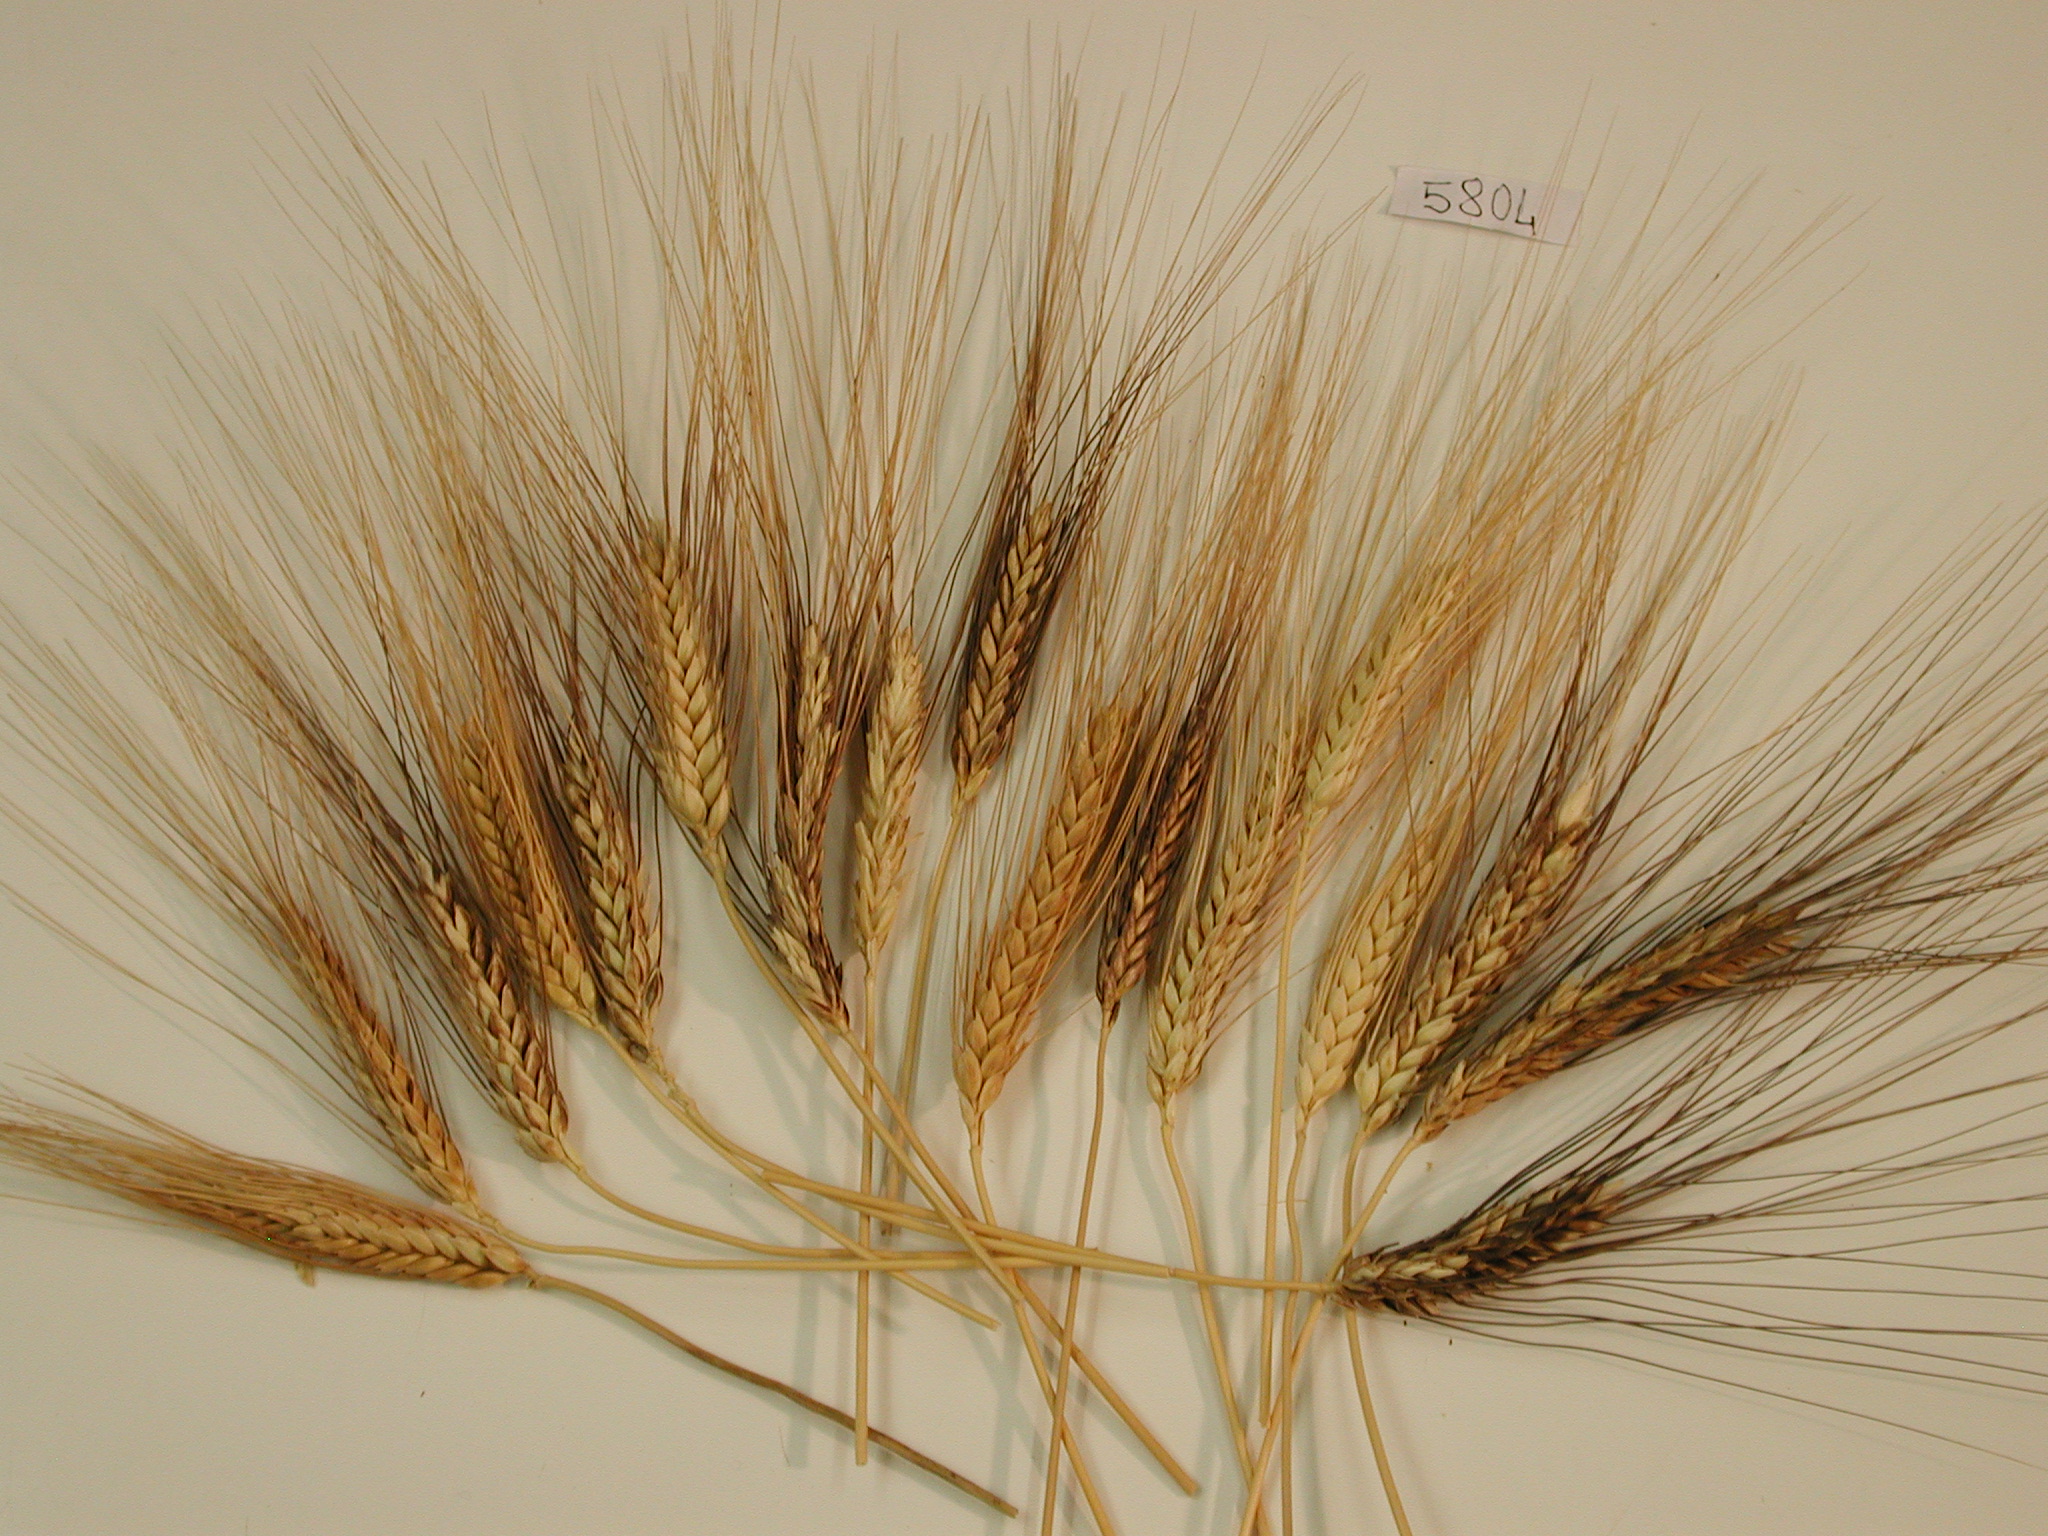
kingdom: Plantae
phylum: Tracheophyta
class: Liliopsida
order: Poales
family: Poaceae
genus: Triticum
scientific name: Triticum turgidum
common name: Wheat
